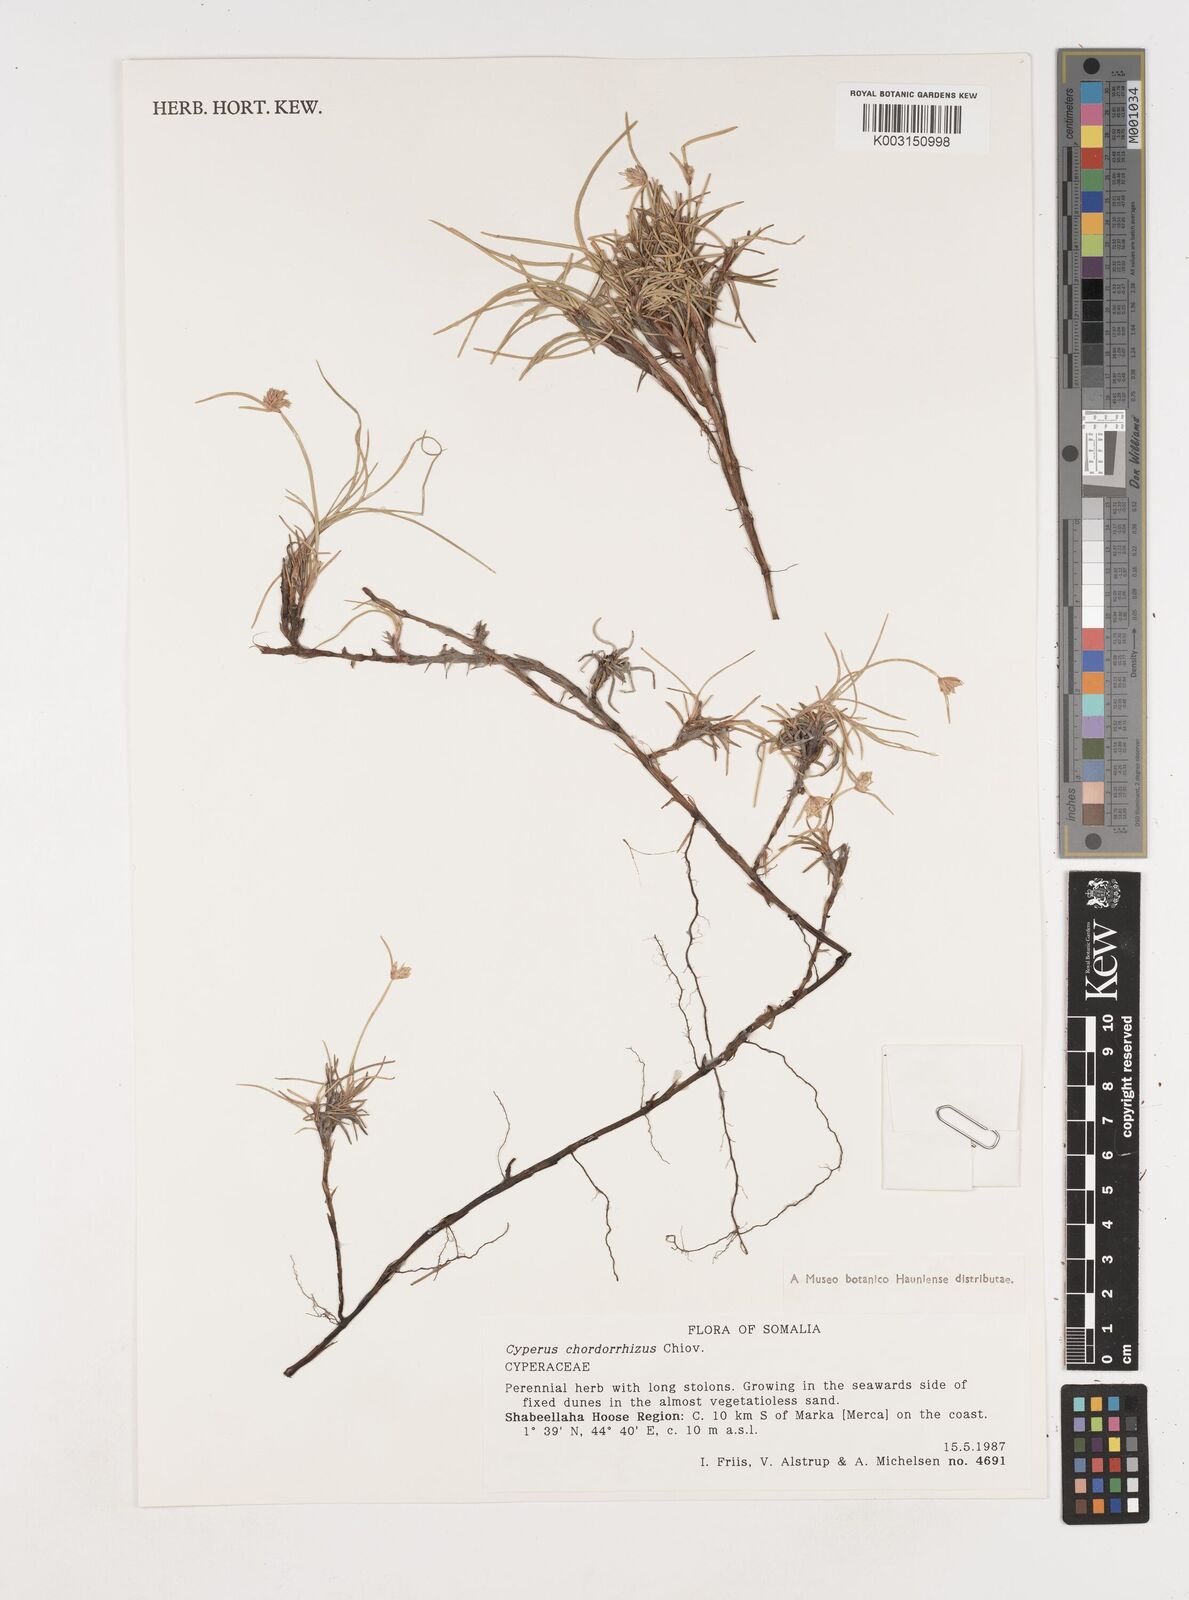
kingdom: Plantae
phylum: Tracheophyta
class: Liliopsida
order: Poales
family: Cyperaceae
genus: Cyperus
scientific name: Cyperus chordorrhizus
